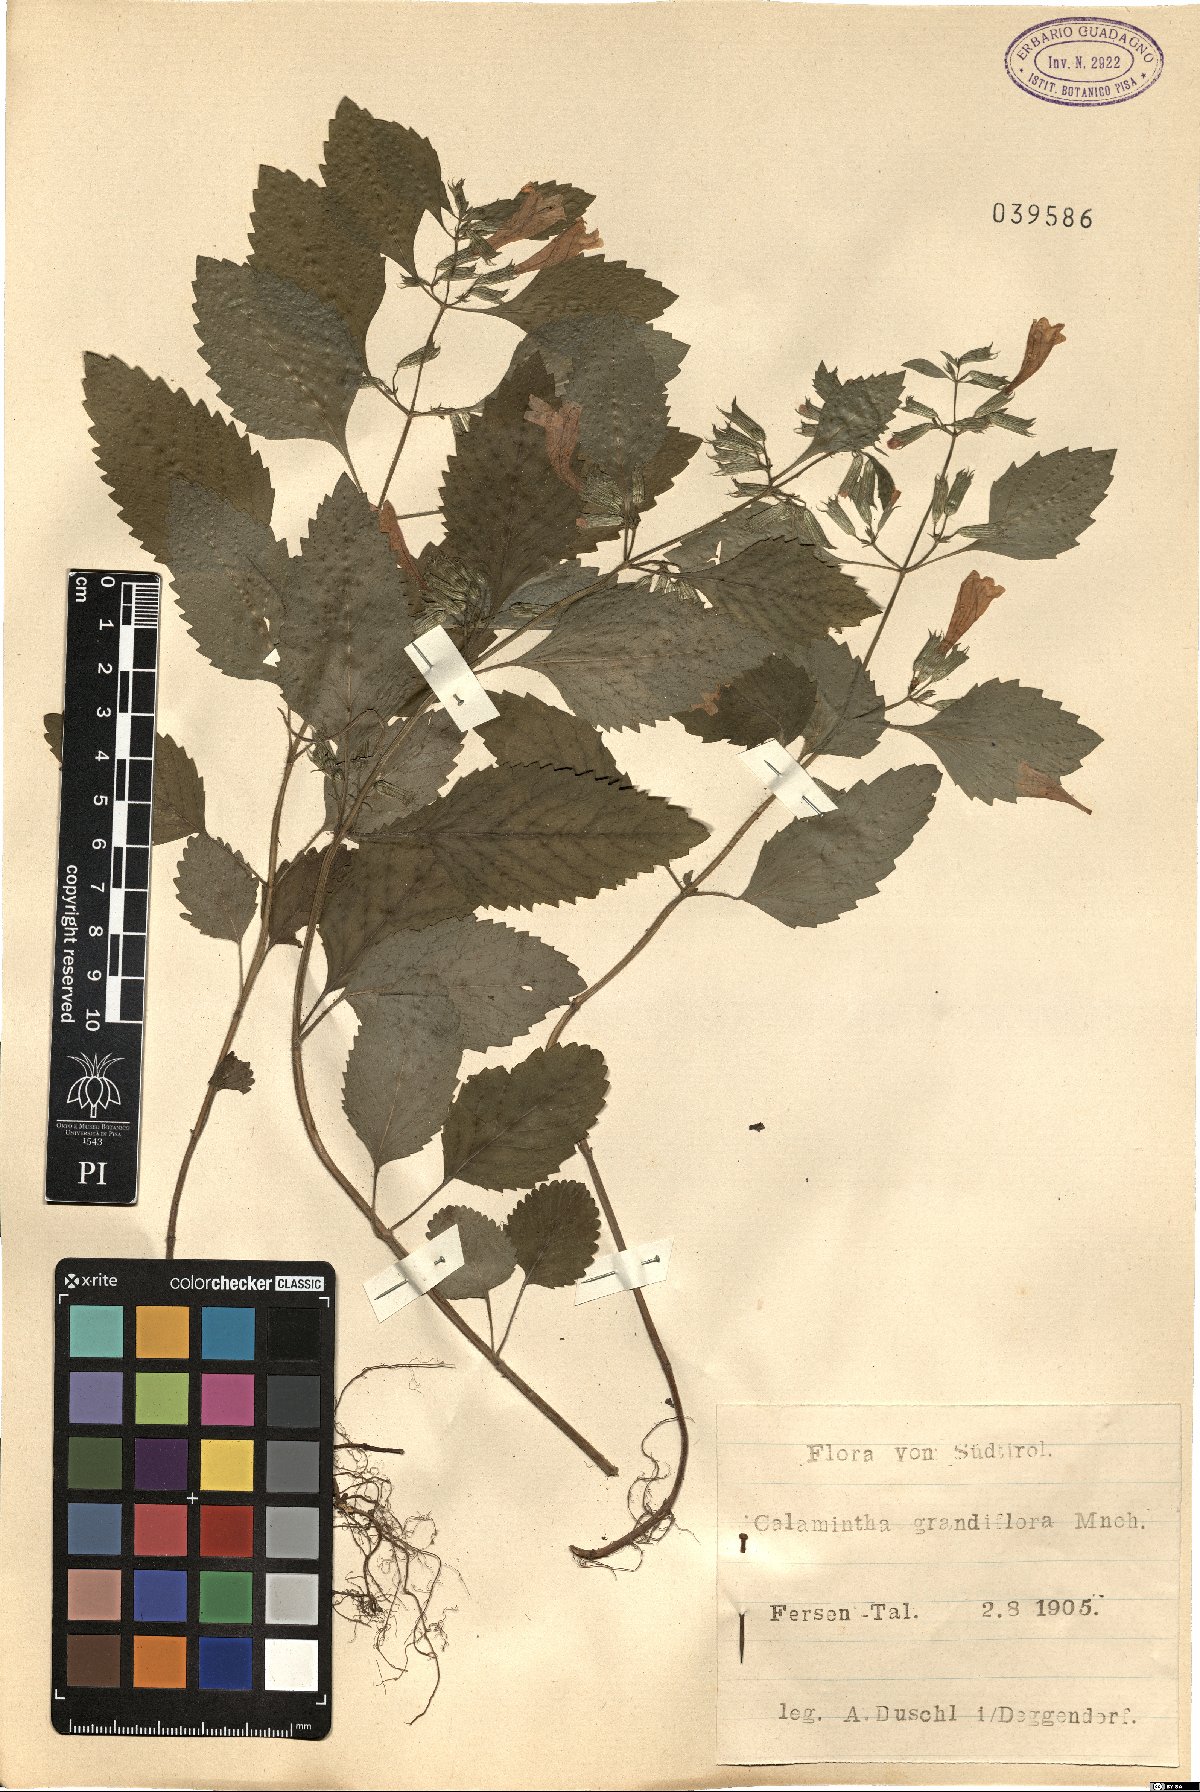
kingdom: Plantae
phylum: Tracheophyta
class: Magnoliopsida
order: Lamiales
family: Lamiaceae
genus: Clinopodium
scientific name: Clinopodium grandiflorum
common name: Greater calamint
